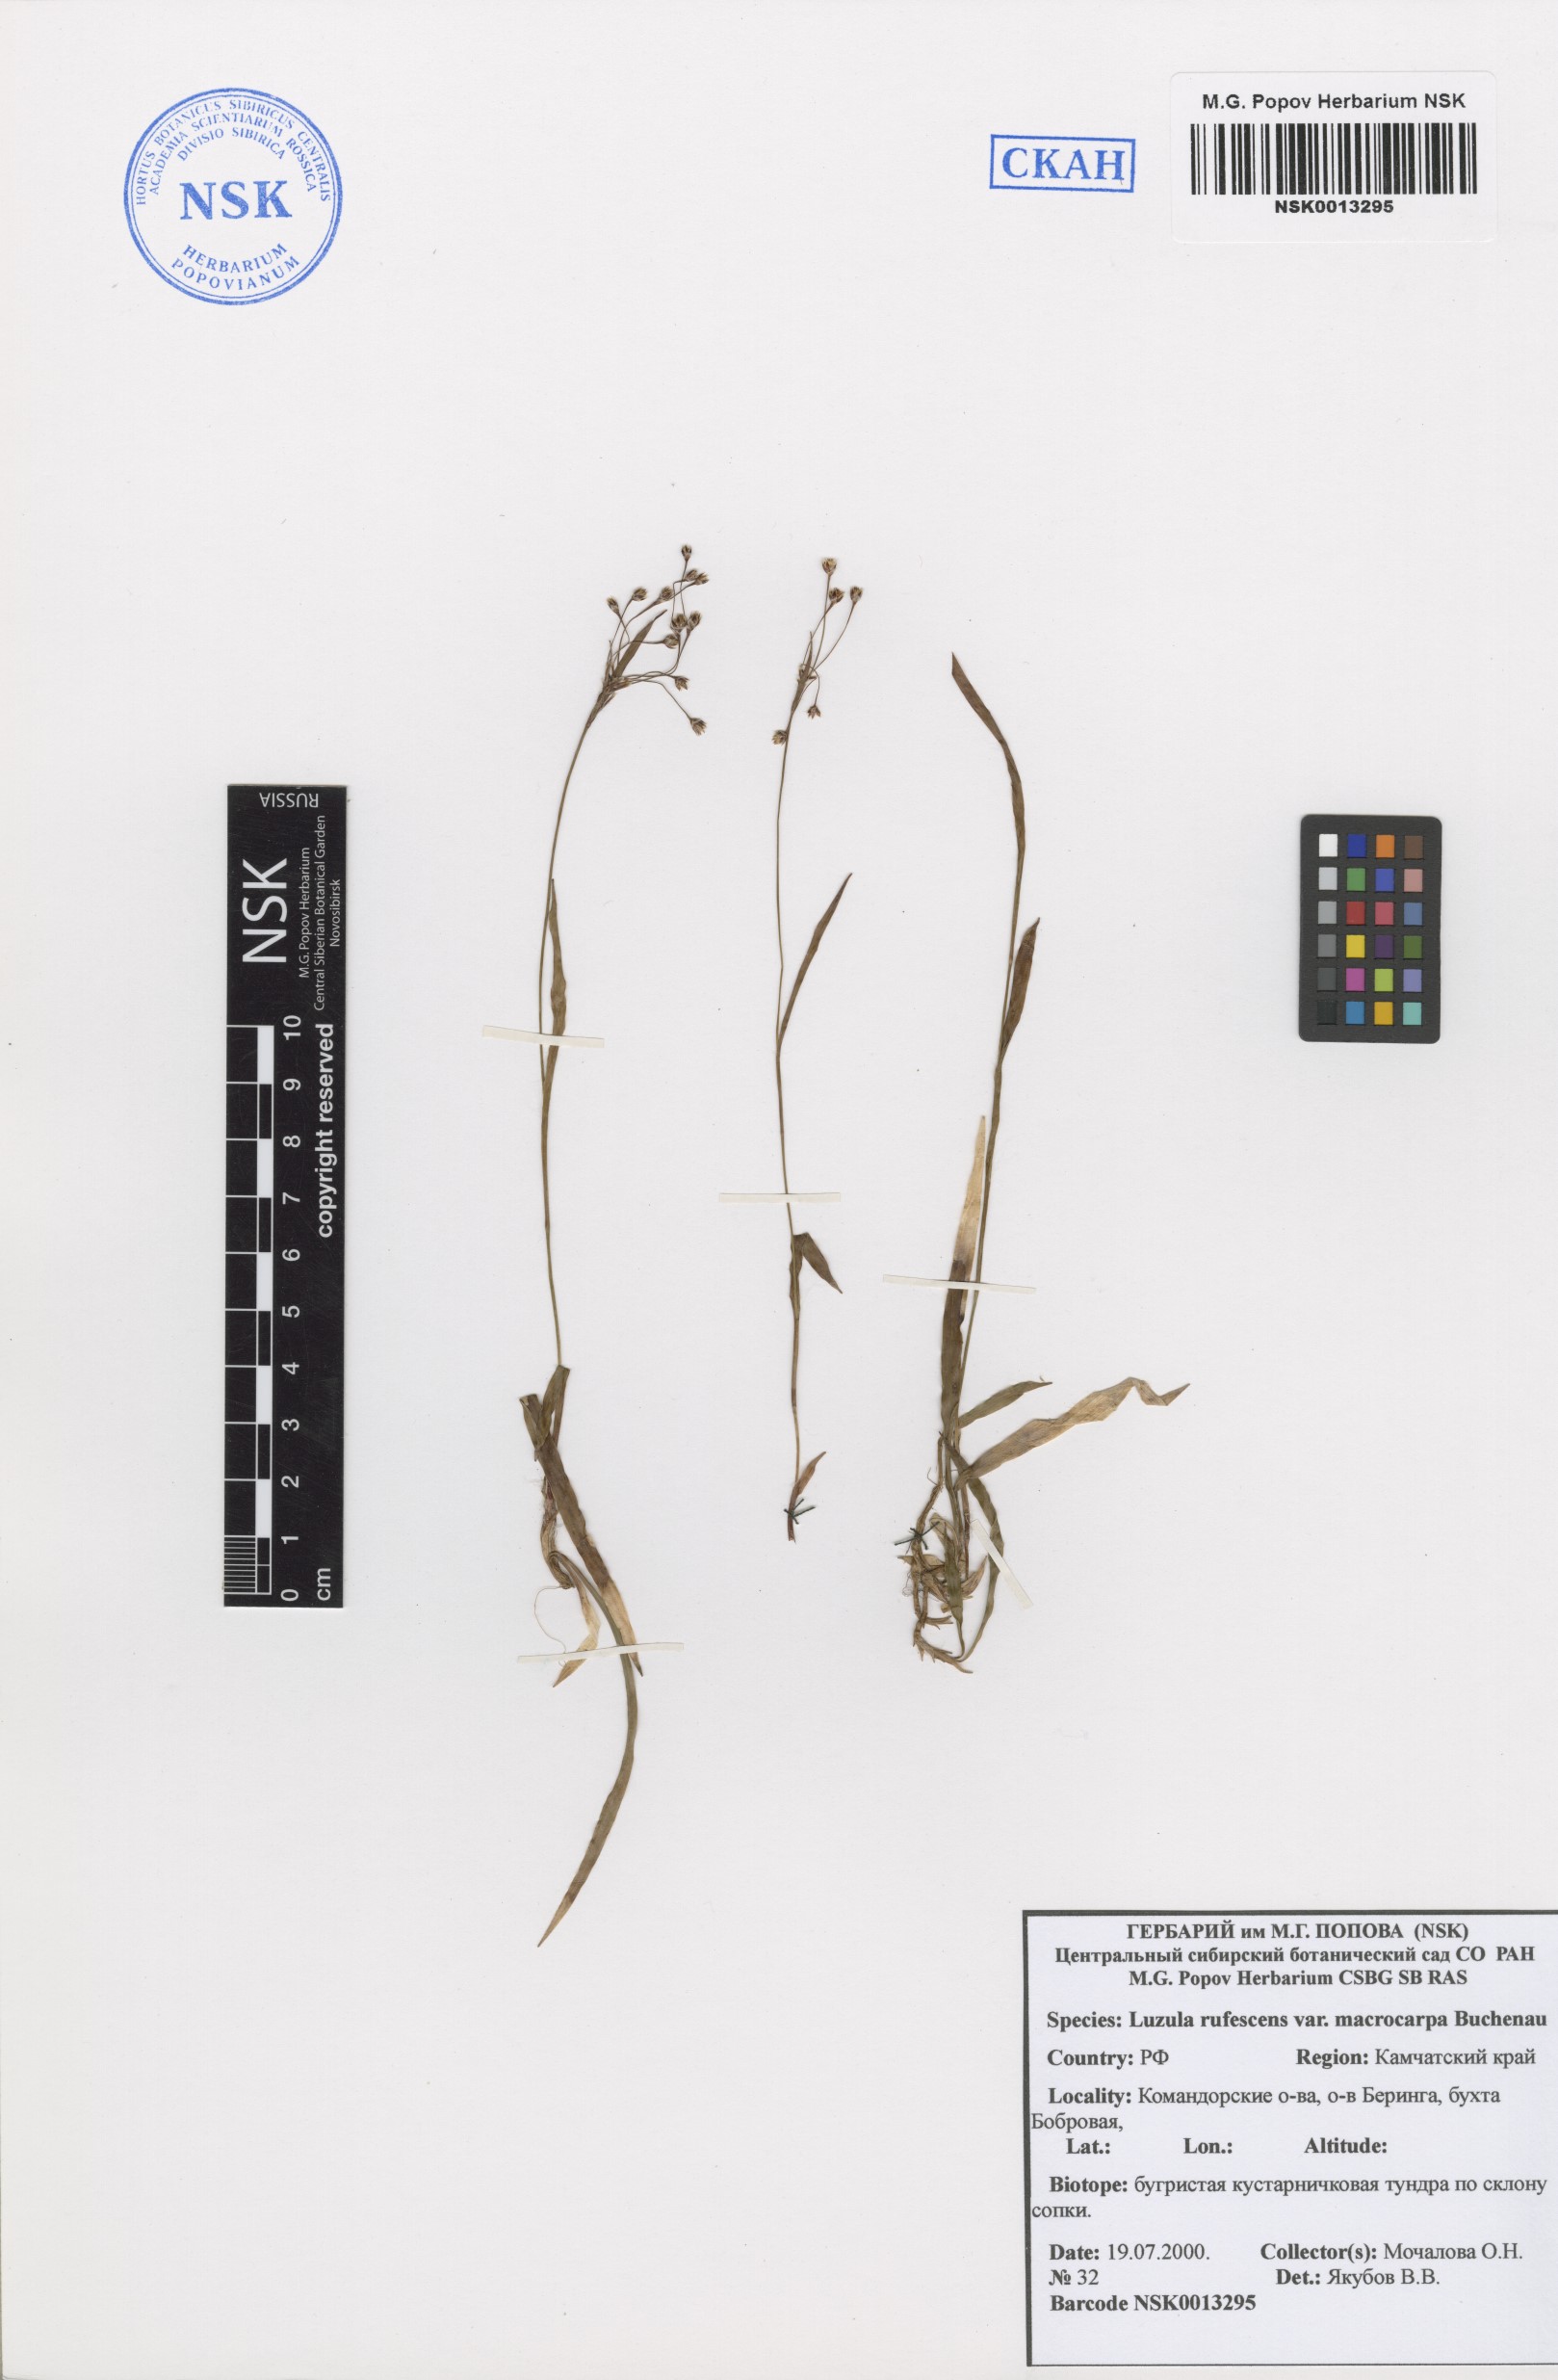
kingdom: Plantae
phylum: Tracheophyta
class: Liliopsida
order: Poales
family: Juncaceae
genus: Luzula
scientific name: Luzula rufescens
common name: Reddish woodrush
